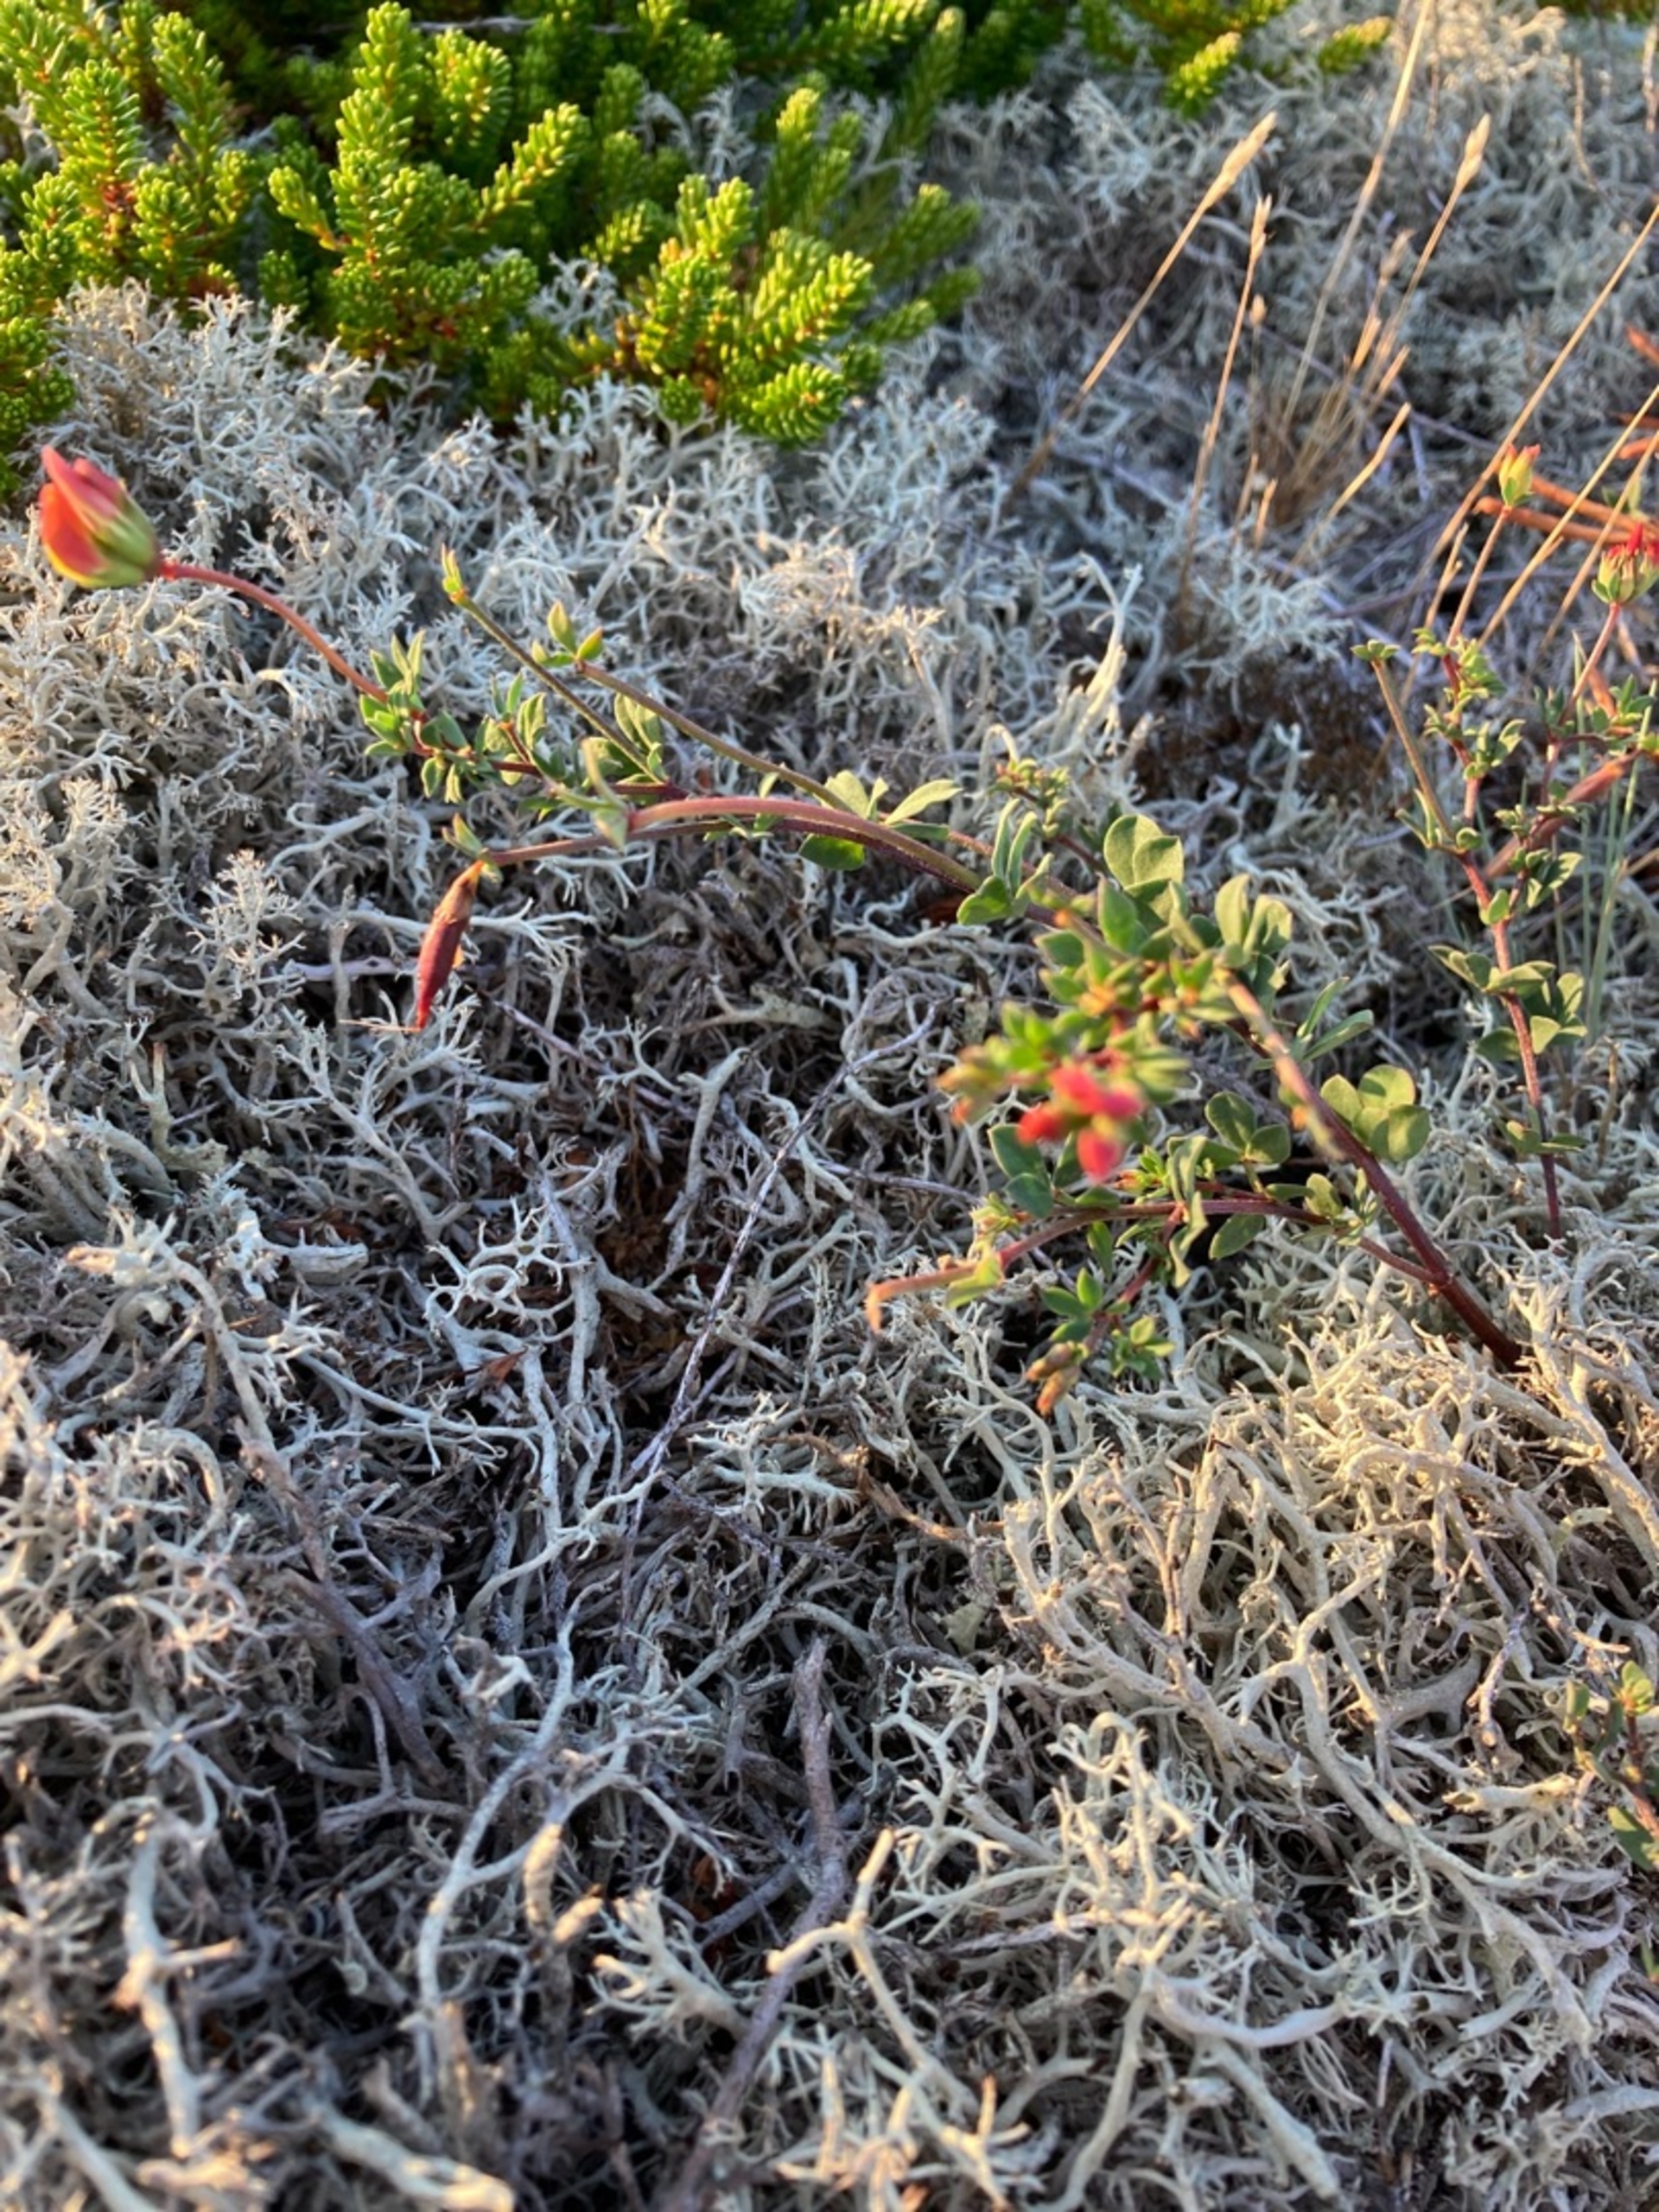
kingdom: Plantae
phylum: Tracheophyta
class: Magnoliopsida
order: Fabales
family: Fabaceae
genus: Lotus
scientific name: Lotus corniculatus
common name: Almindelig kællingetand
